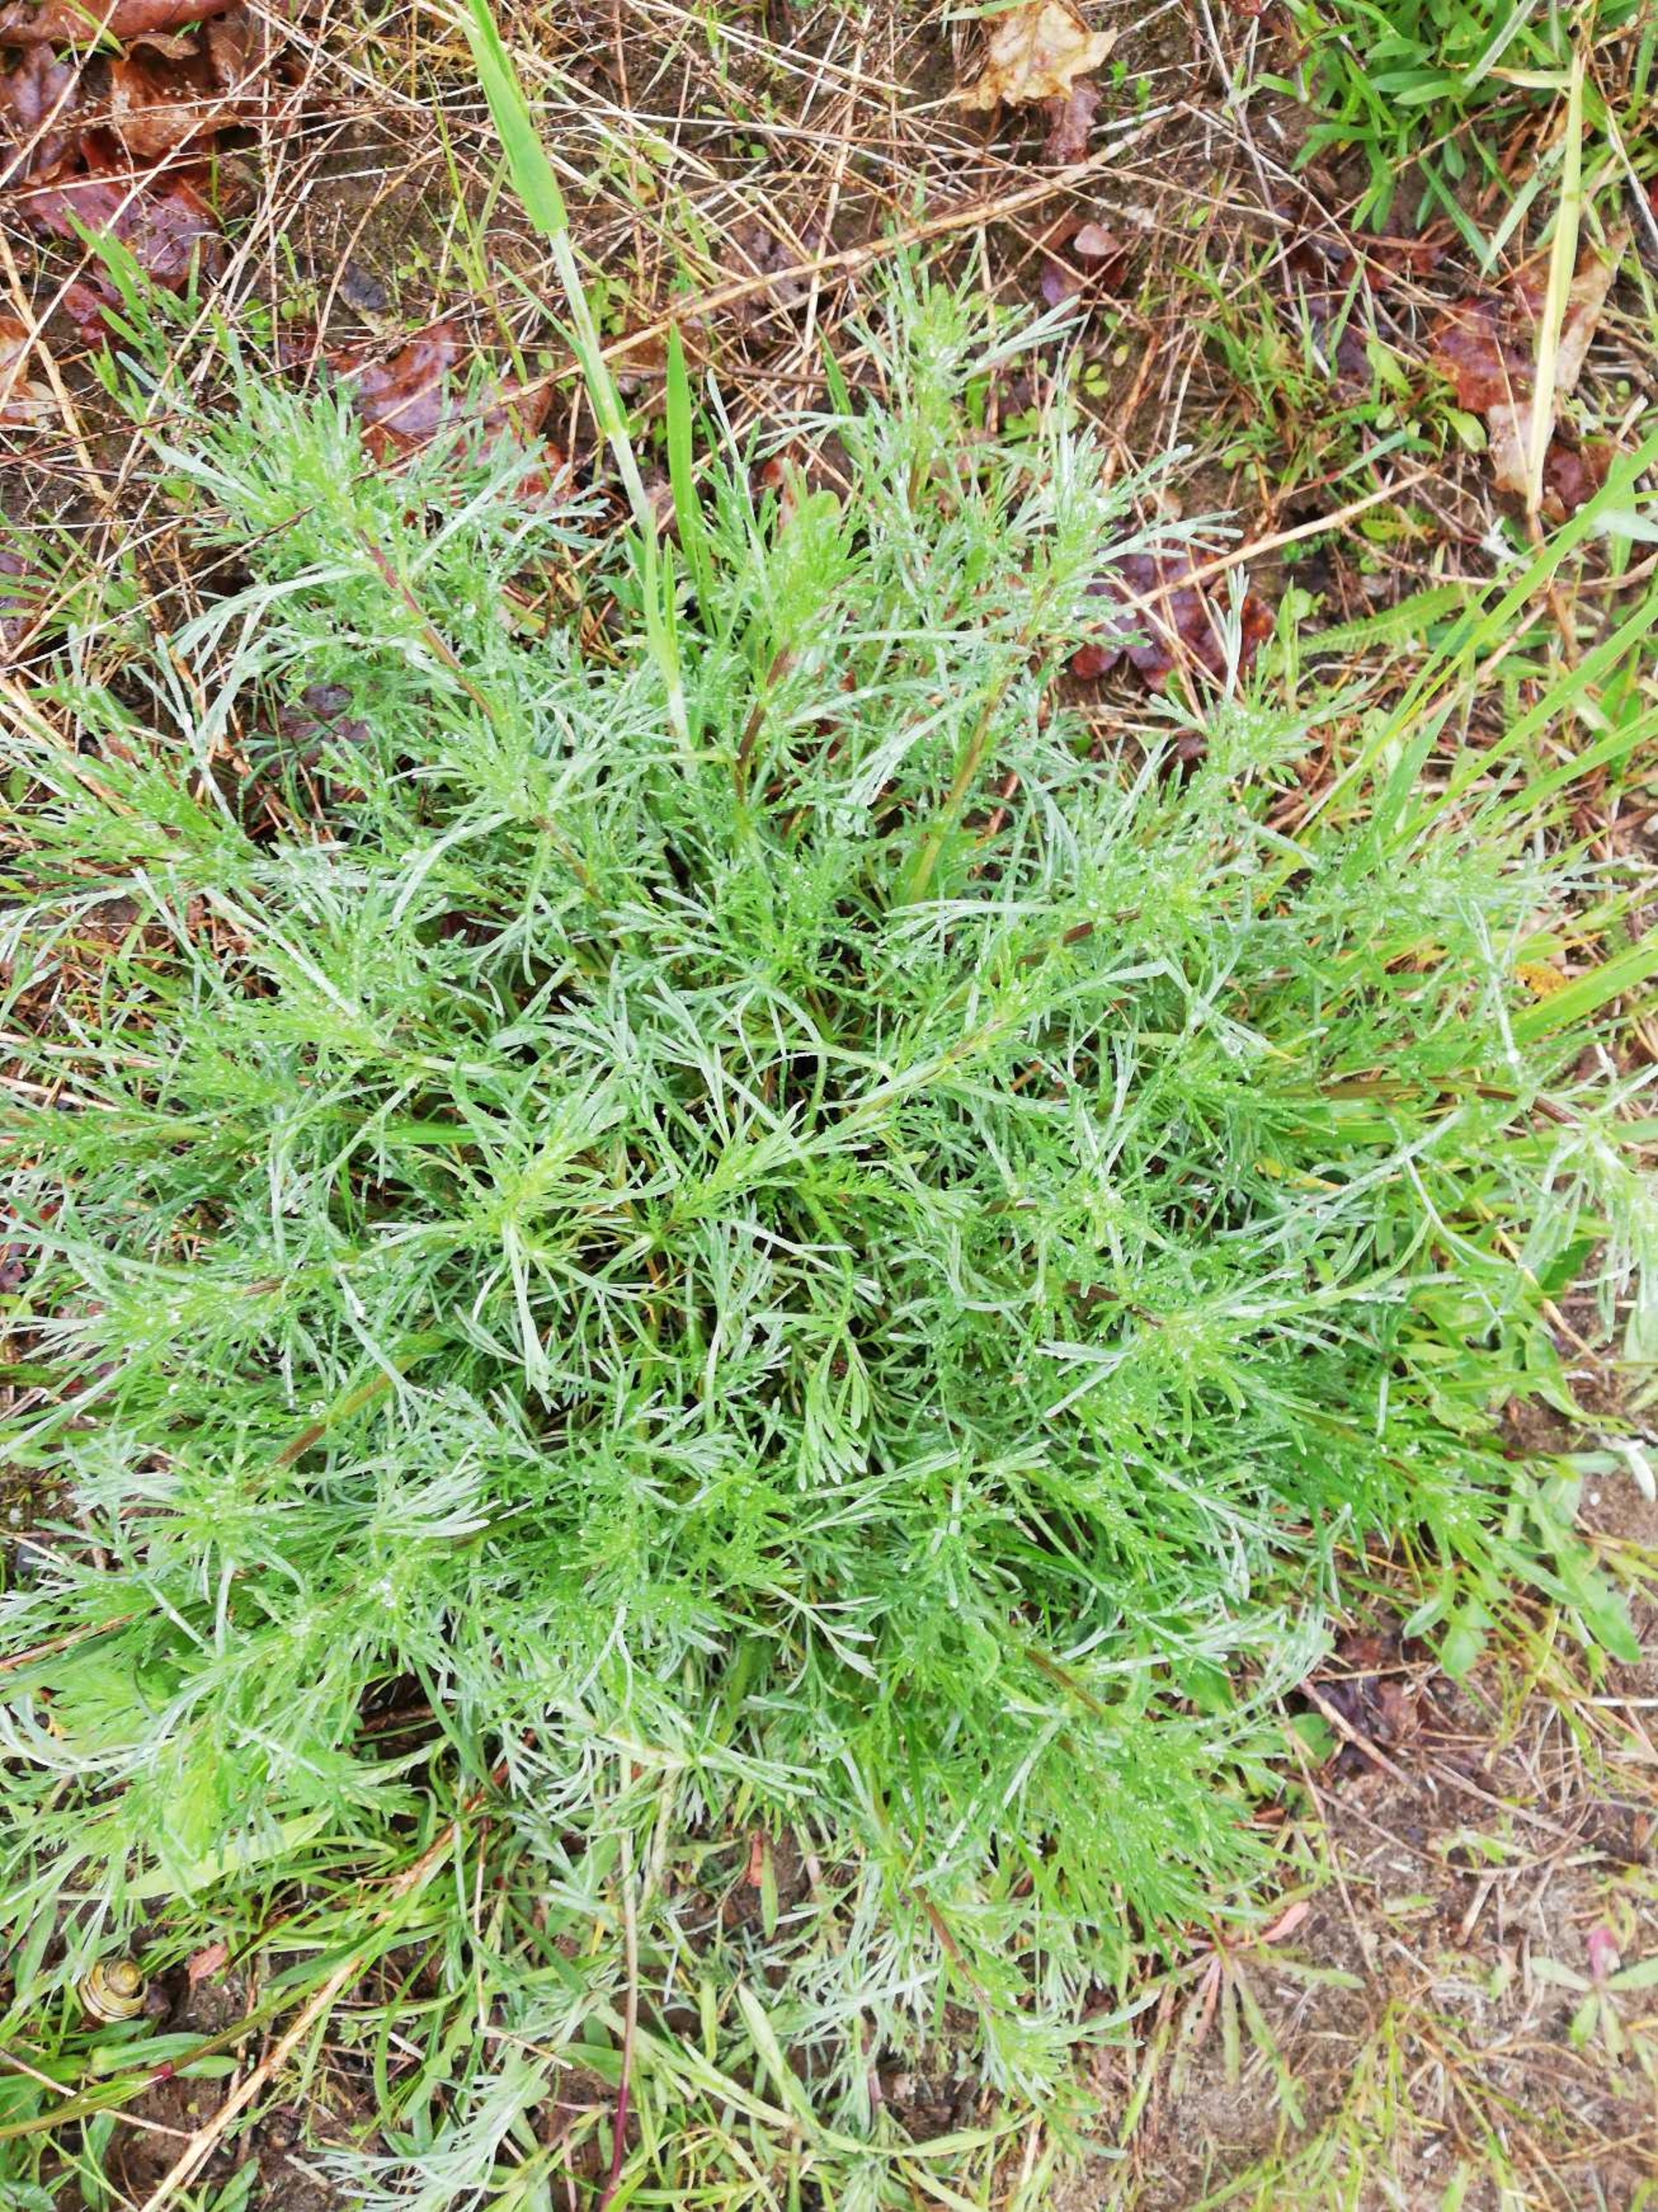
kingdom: Plantae
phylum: Tracheophyta
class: Magnoliopsida
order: Asterales
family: Asteraceae
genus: Artemisia
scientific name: Artemisia campestris
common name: Mark-bynke
